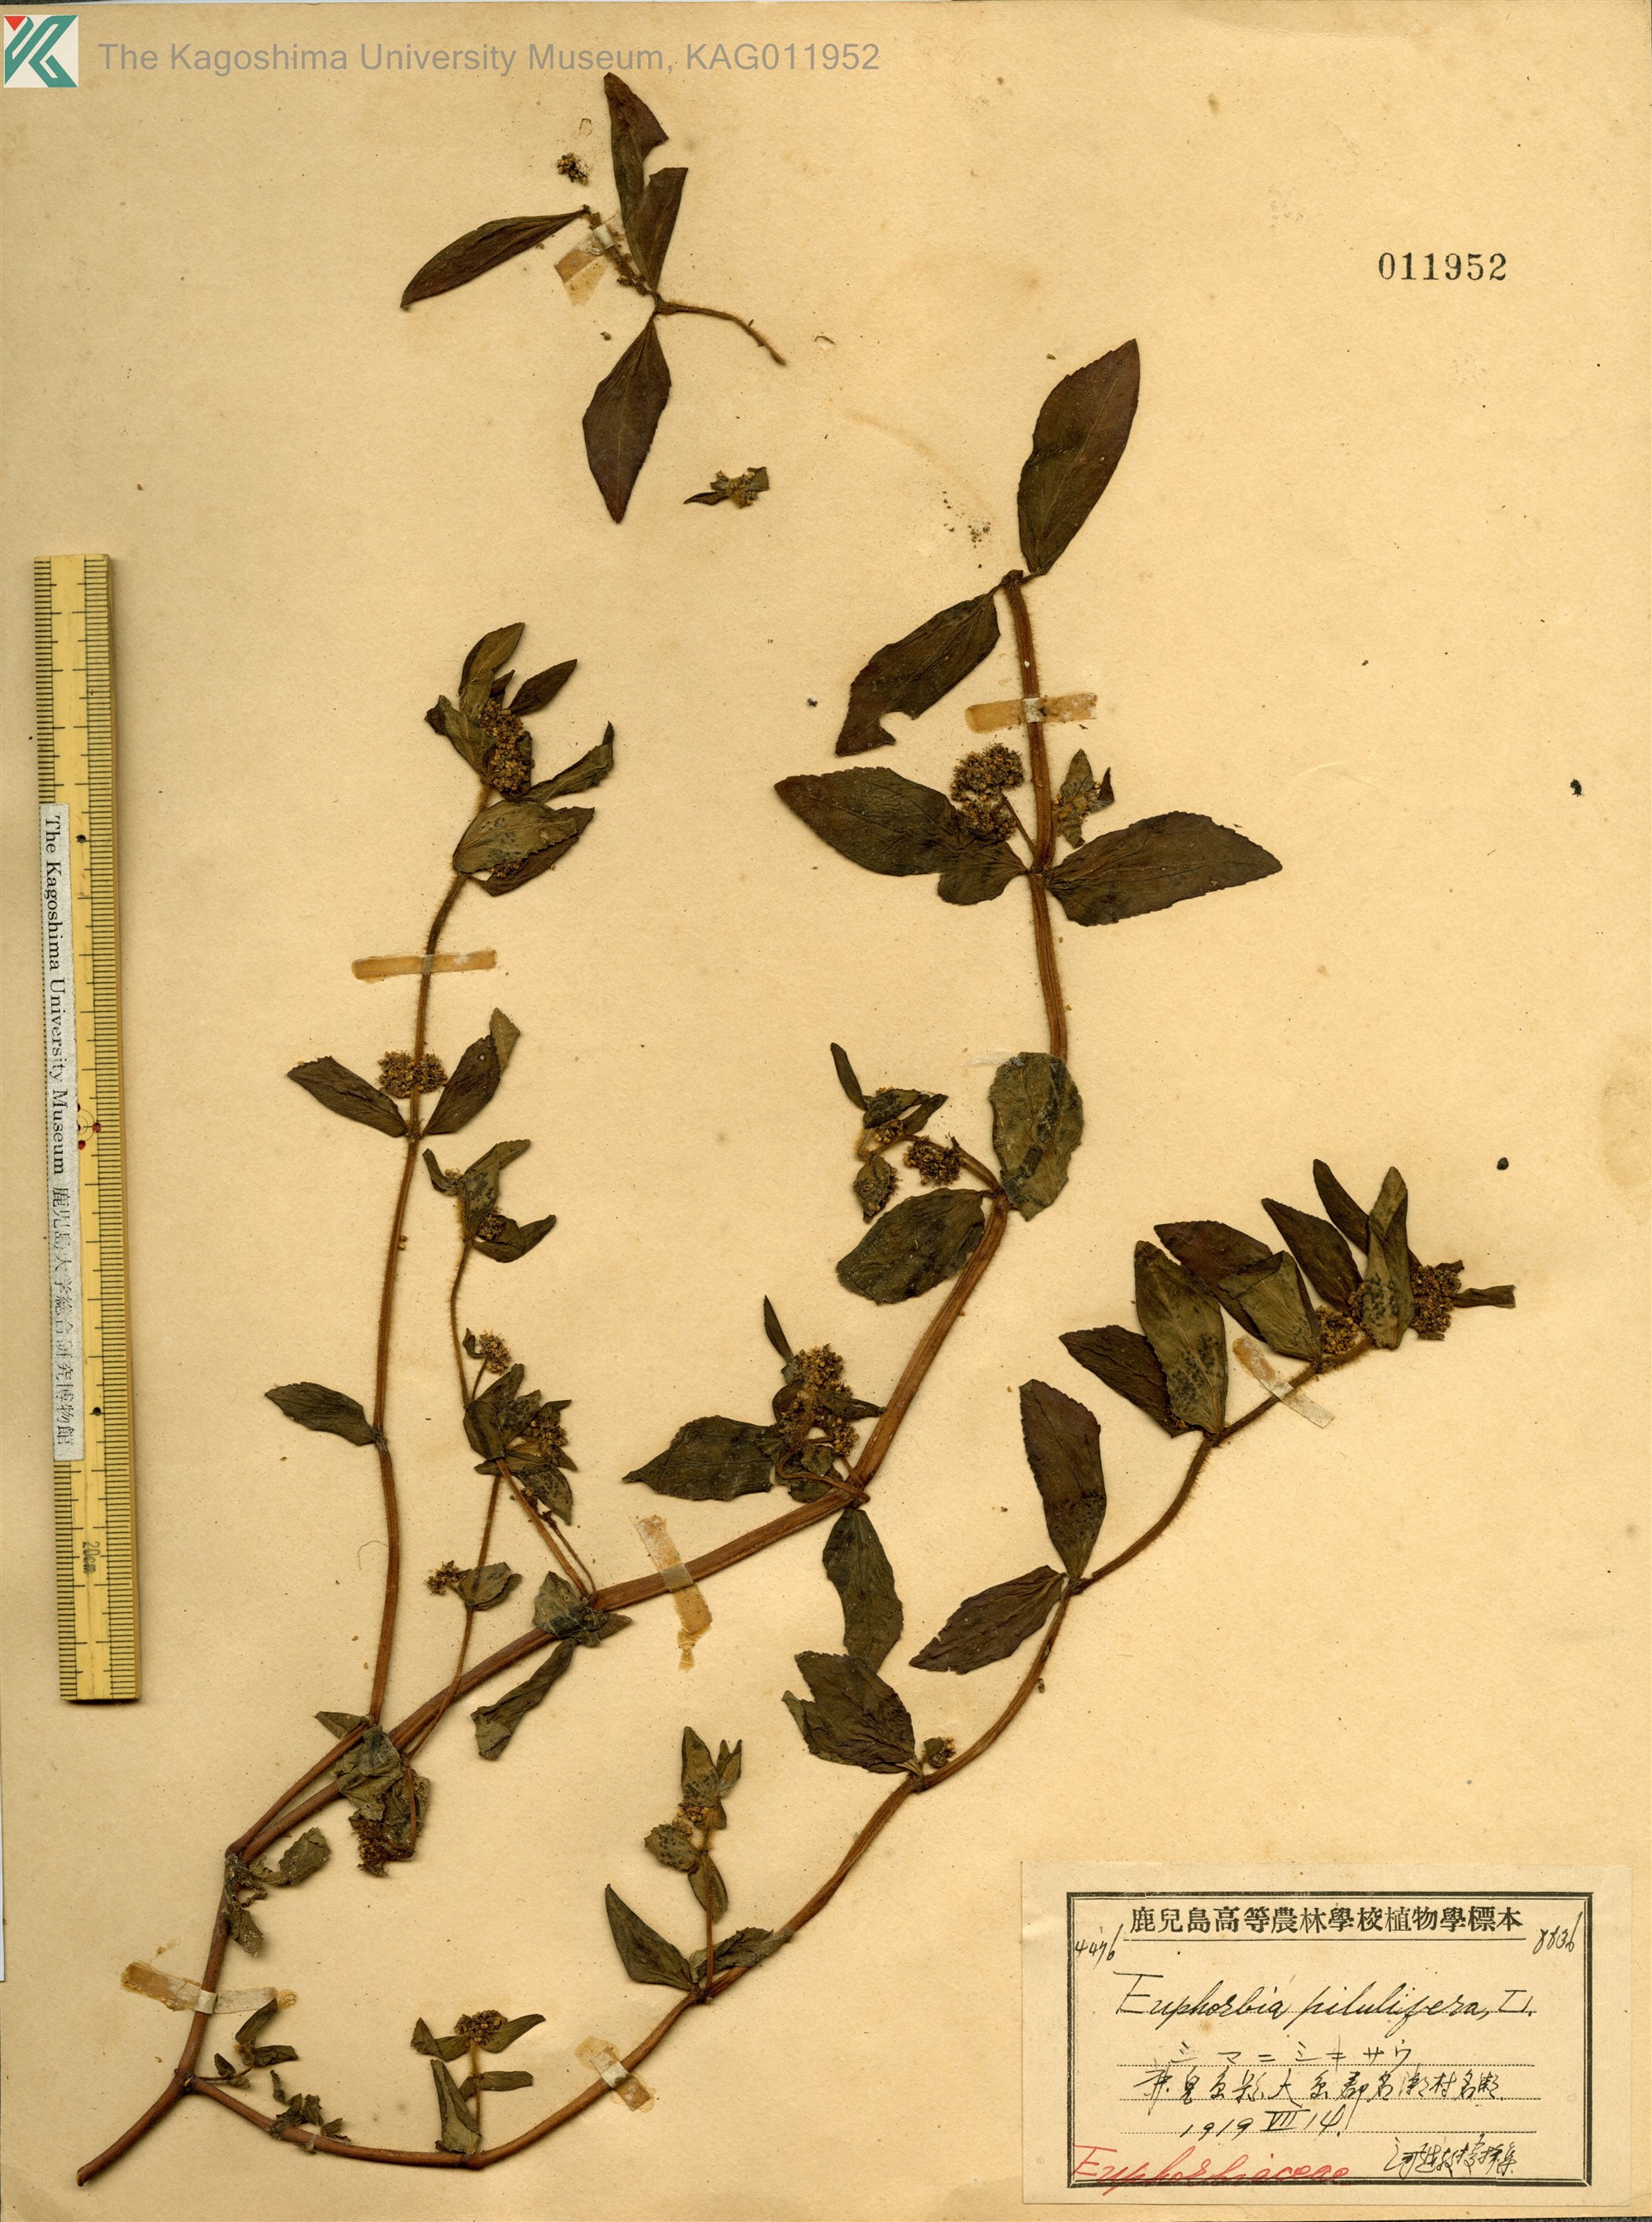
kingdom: Plantae
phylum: Tracheophyta
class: Magnoliopsida
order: Malpighiales
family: Euphorbiaceae
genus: Euphorbia
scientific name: Euphorbia hirta
